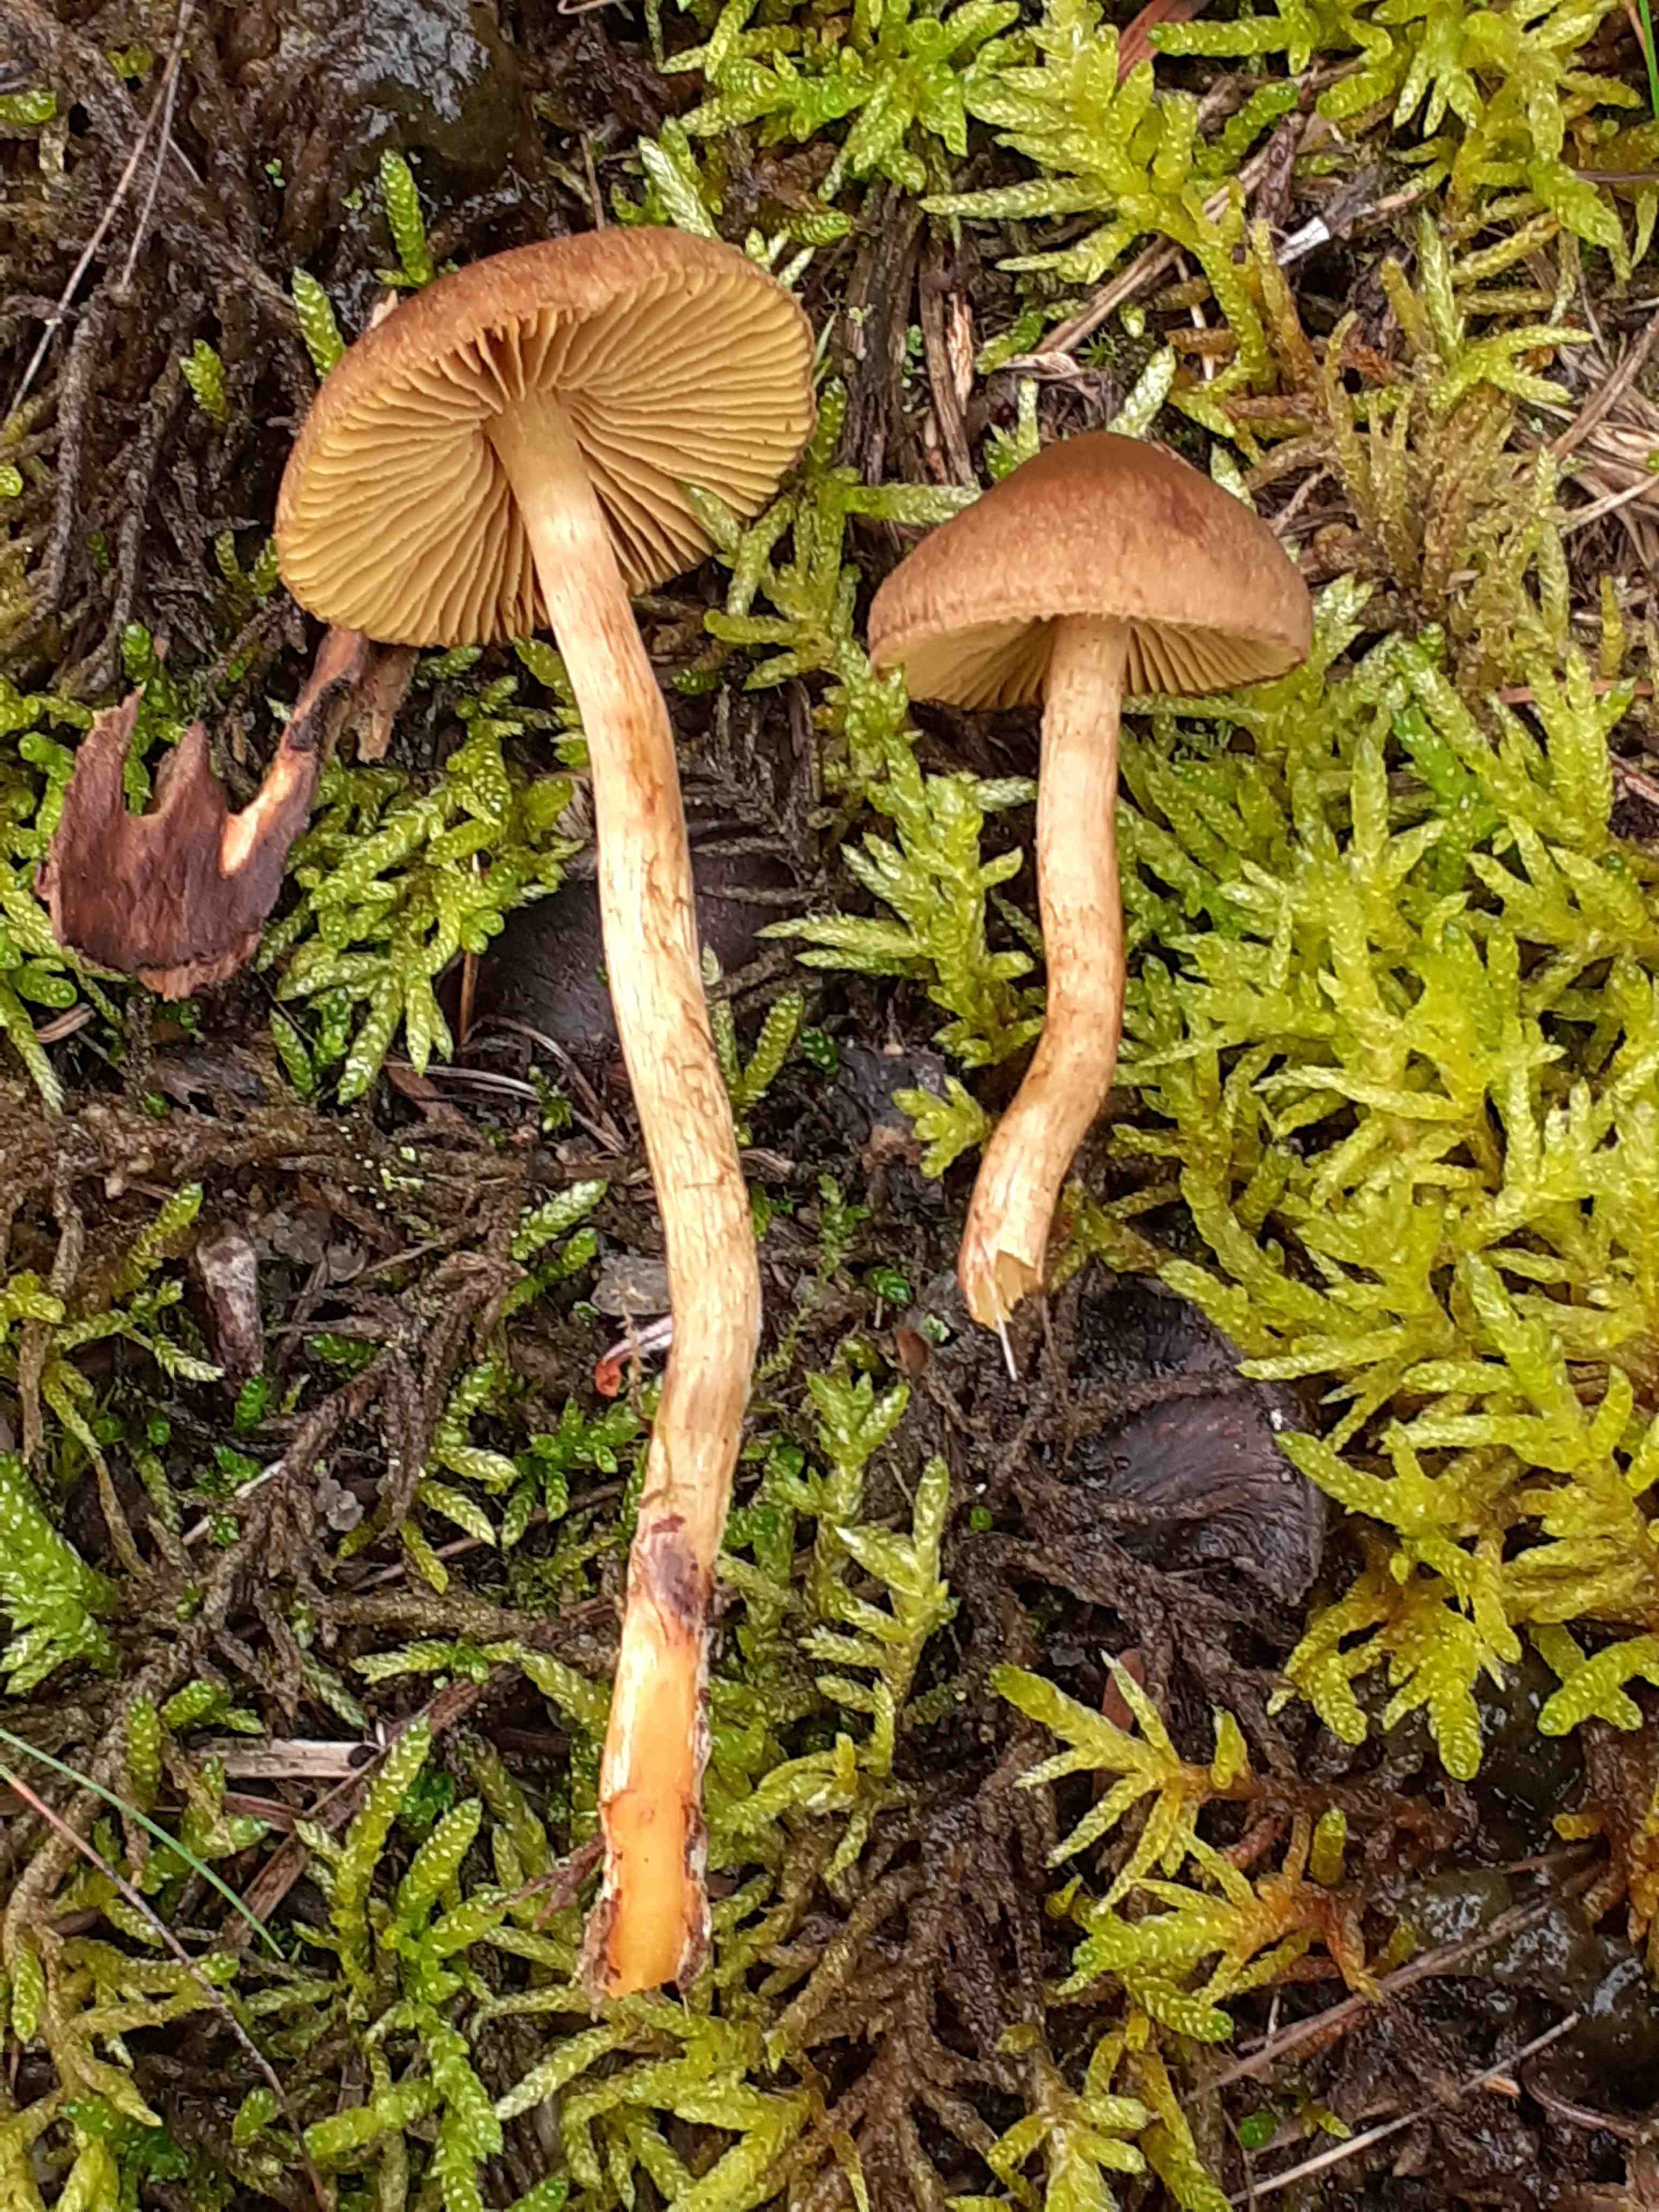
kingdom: Fungi
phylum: Basidiomycota
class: Agaricomycetes
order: Agaricales
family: Cortinariaceae
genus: Cortinarius
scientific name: Cortinarius
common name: gulbladet slørhat
